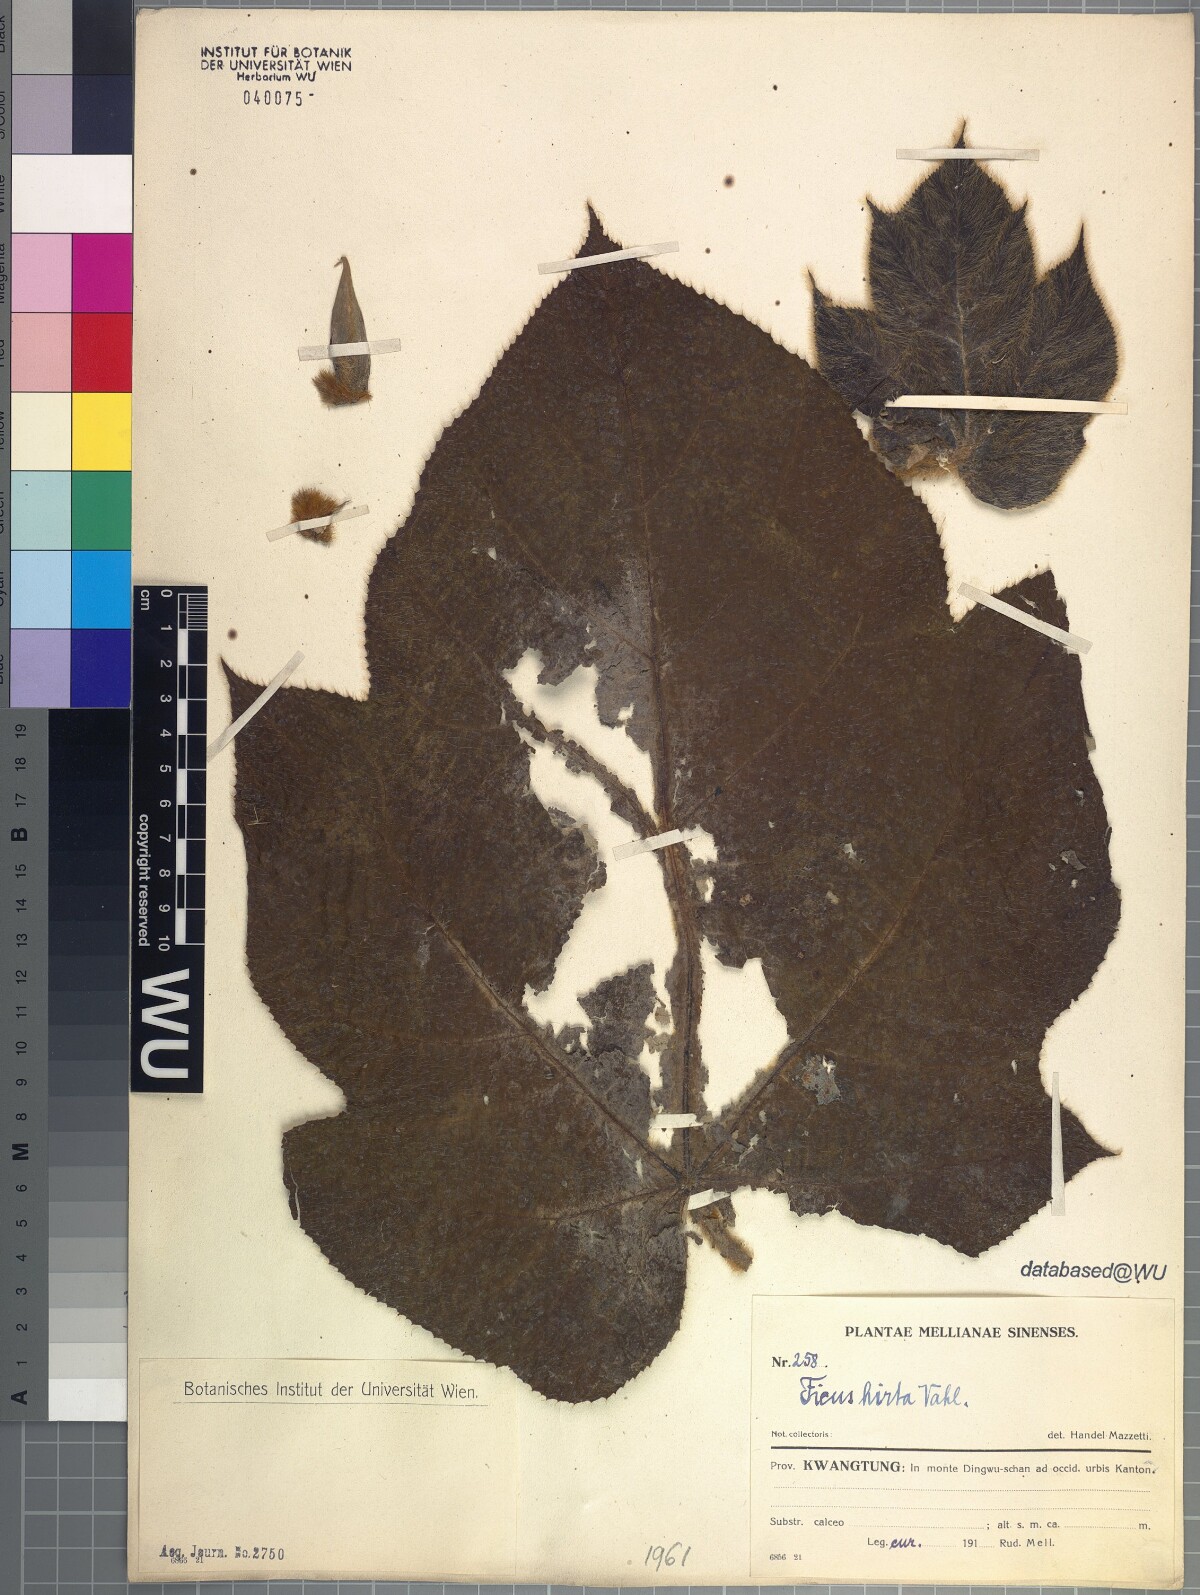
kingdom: Plantae
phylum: Tracheophyta
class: Magnoliopsida
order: Rosales
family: Moraceae
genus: Ficus
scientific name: Ficus simplicissima
